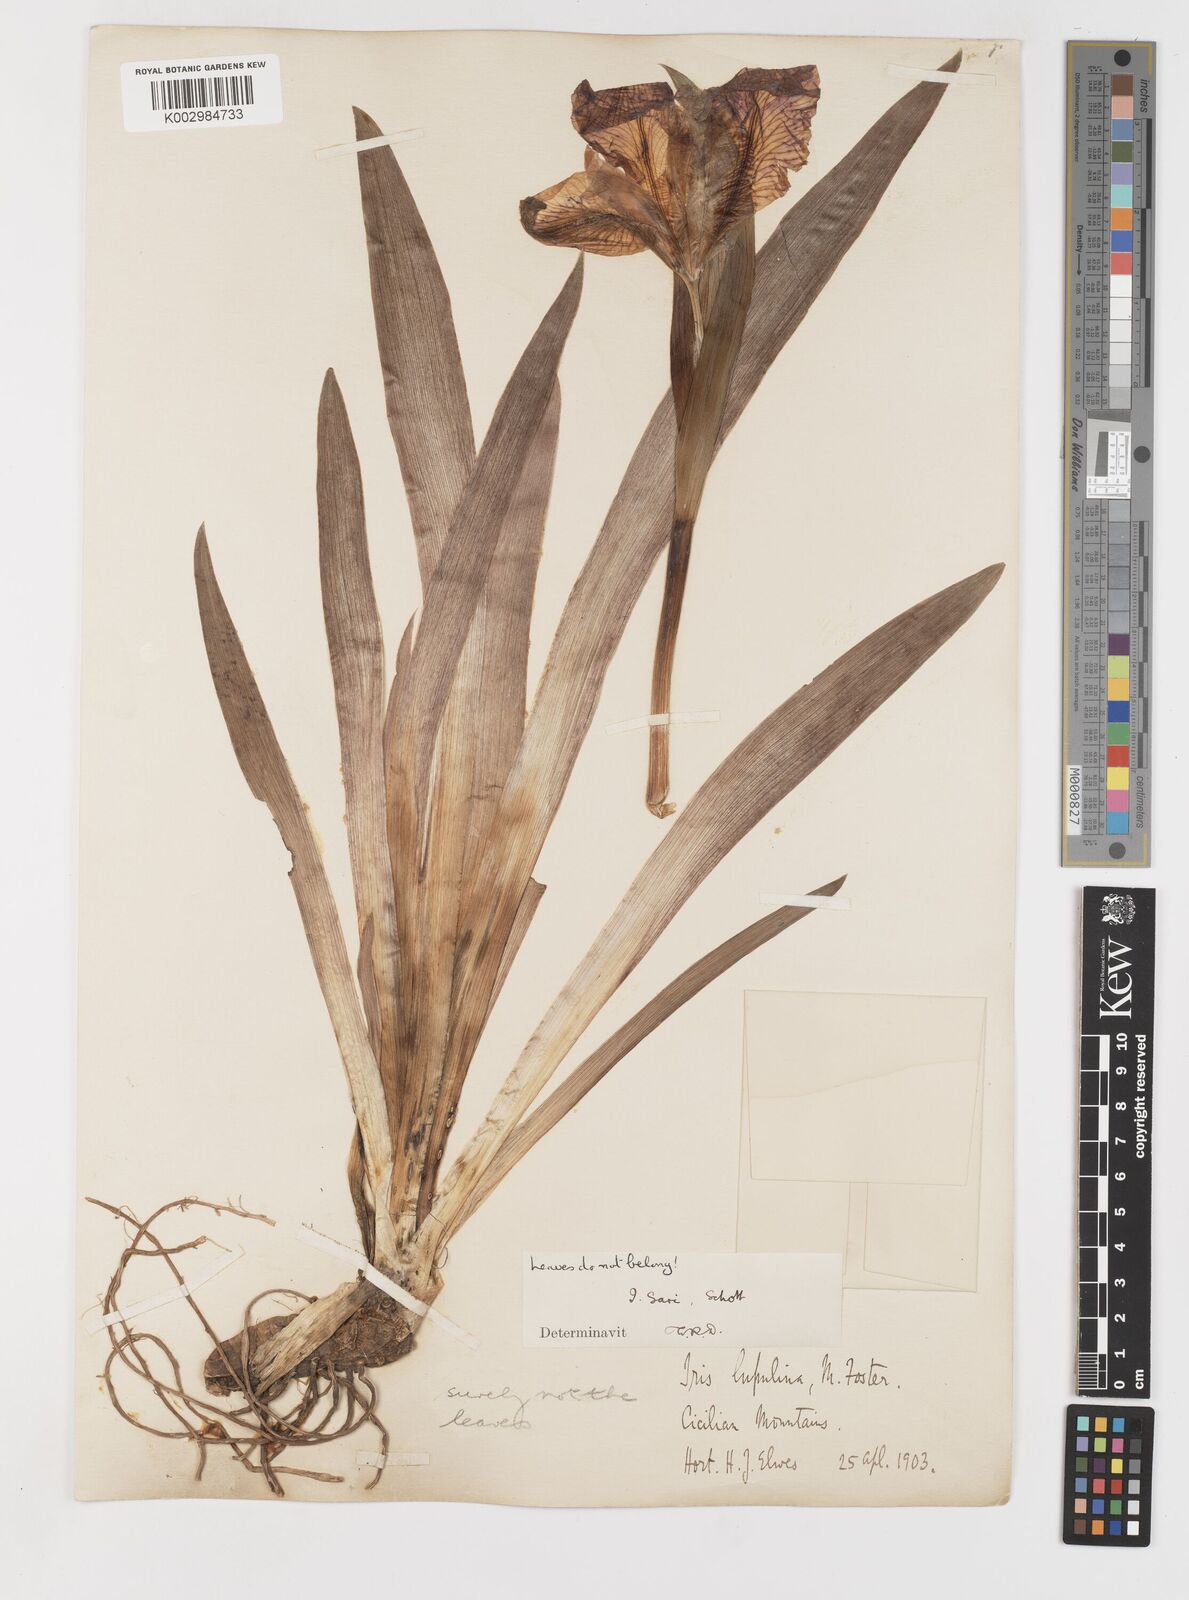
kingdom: Plantae
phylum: Tracheophyta
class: Liliopsida
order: Asparagales
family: Iridaceae
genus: Iris
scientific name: Iris sari
